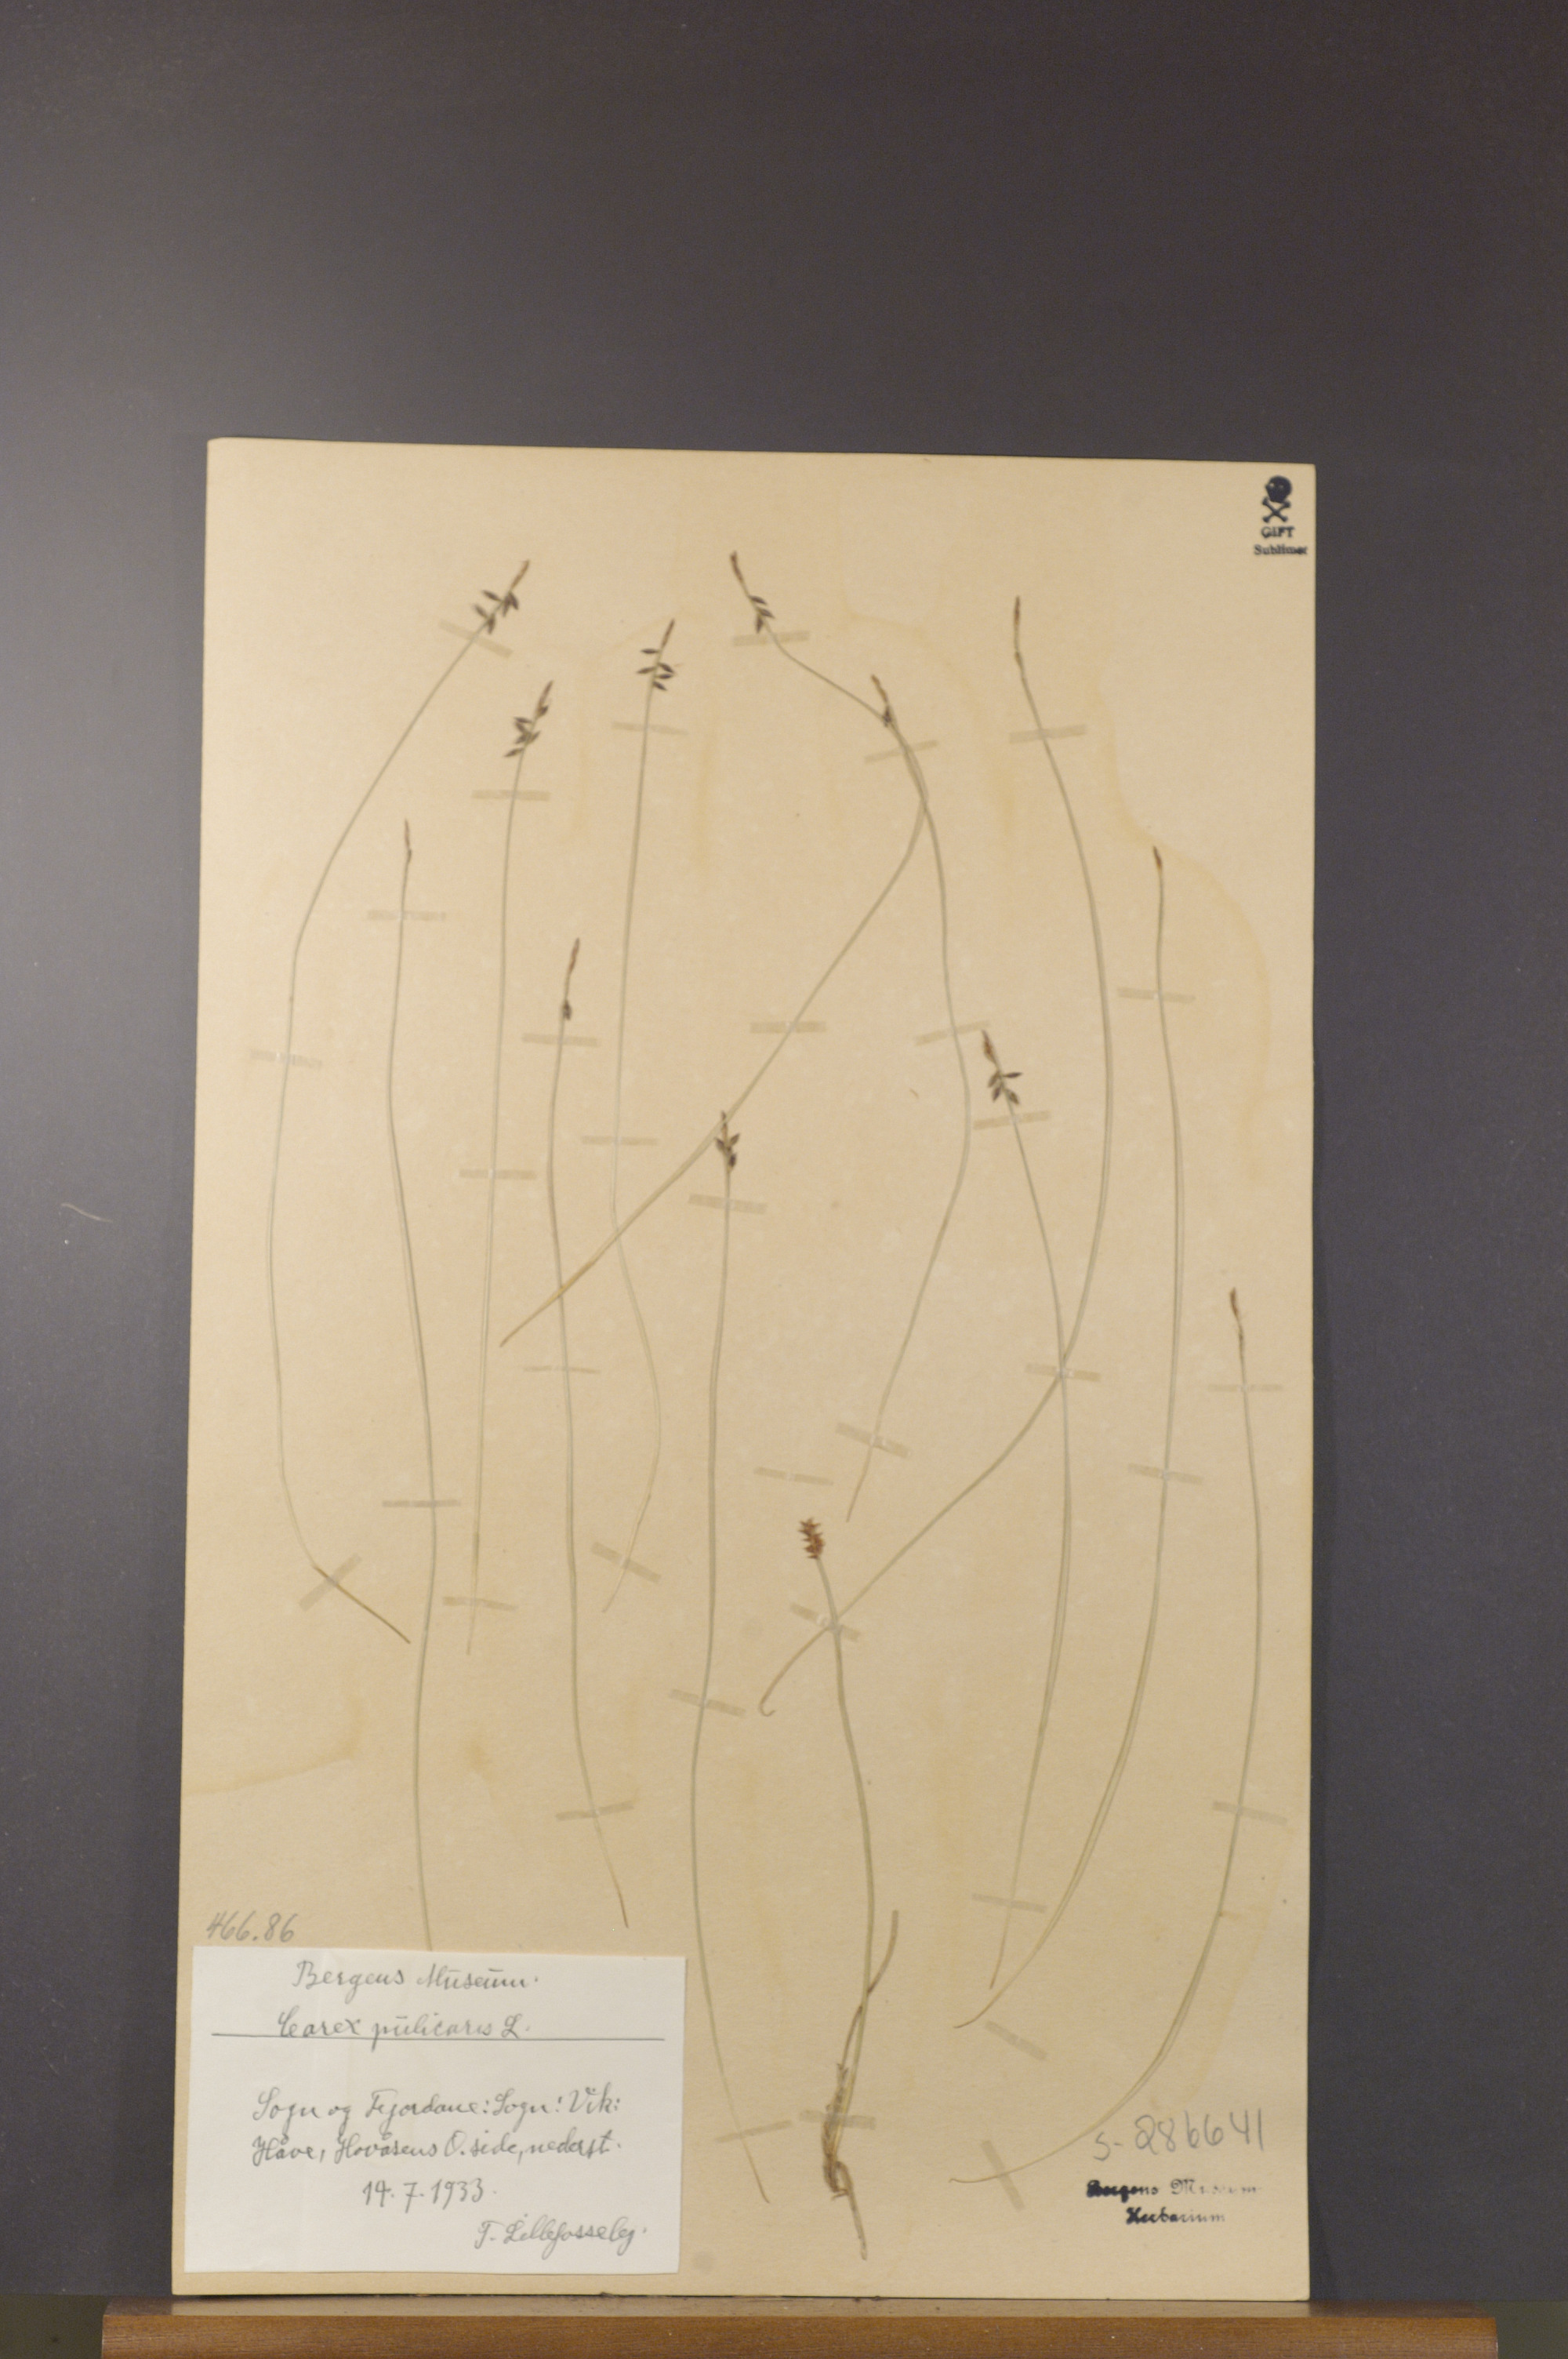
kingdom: Plantae
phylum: Tracheophyta
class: Liliopsida
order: Poales
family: Cyperaceae
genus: Carex
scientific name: Carex pulicaris
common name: Flea sedge
